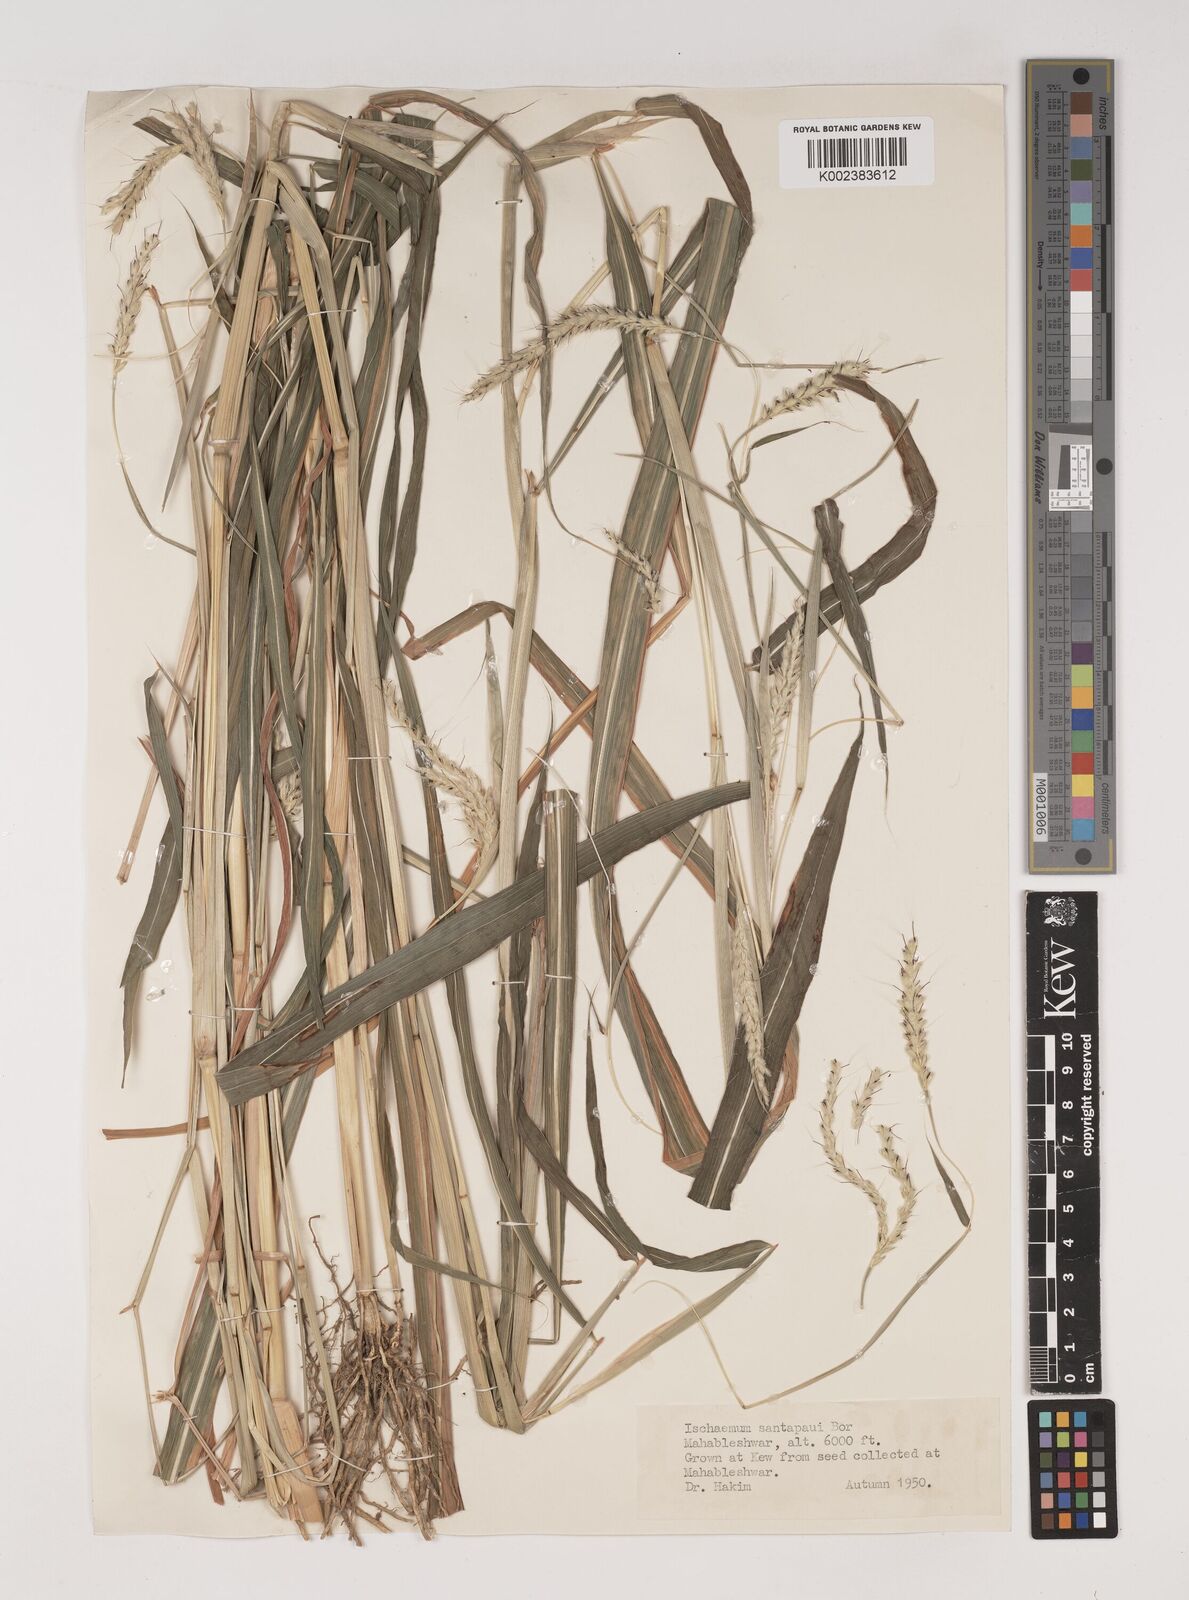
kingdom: Plantae
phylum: Tracheophyta
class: Liliopsida
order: Poales
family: Poaceae
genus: Ischaemum
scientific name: Ischaemum santapaui
